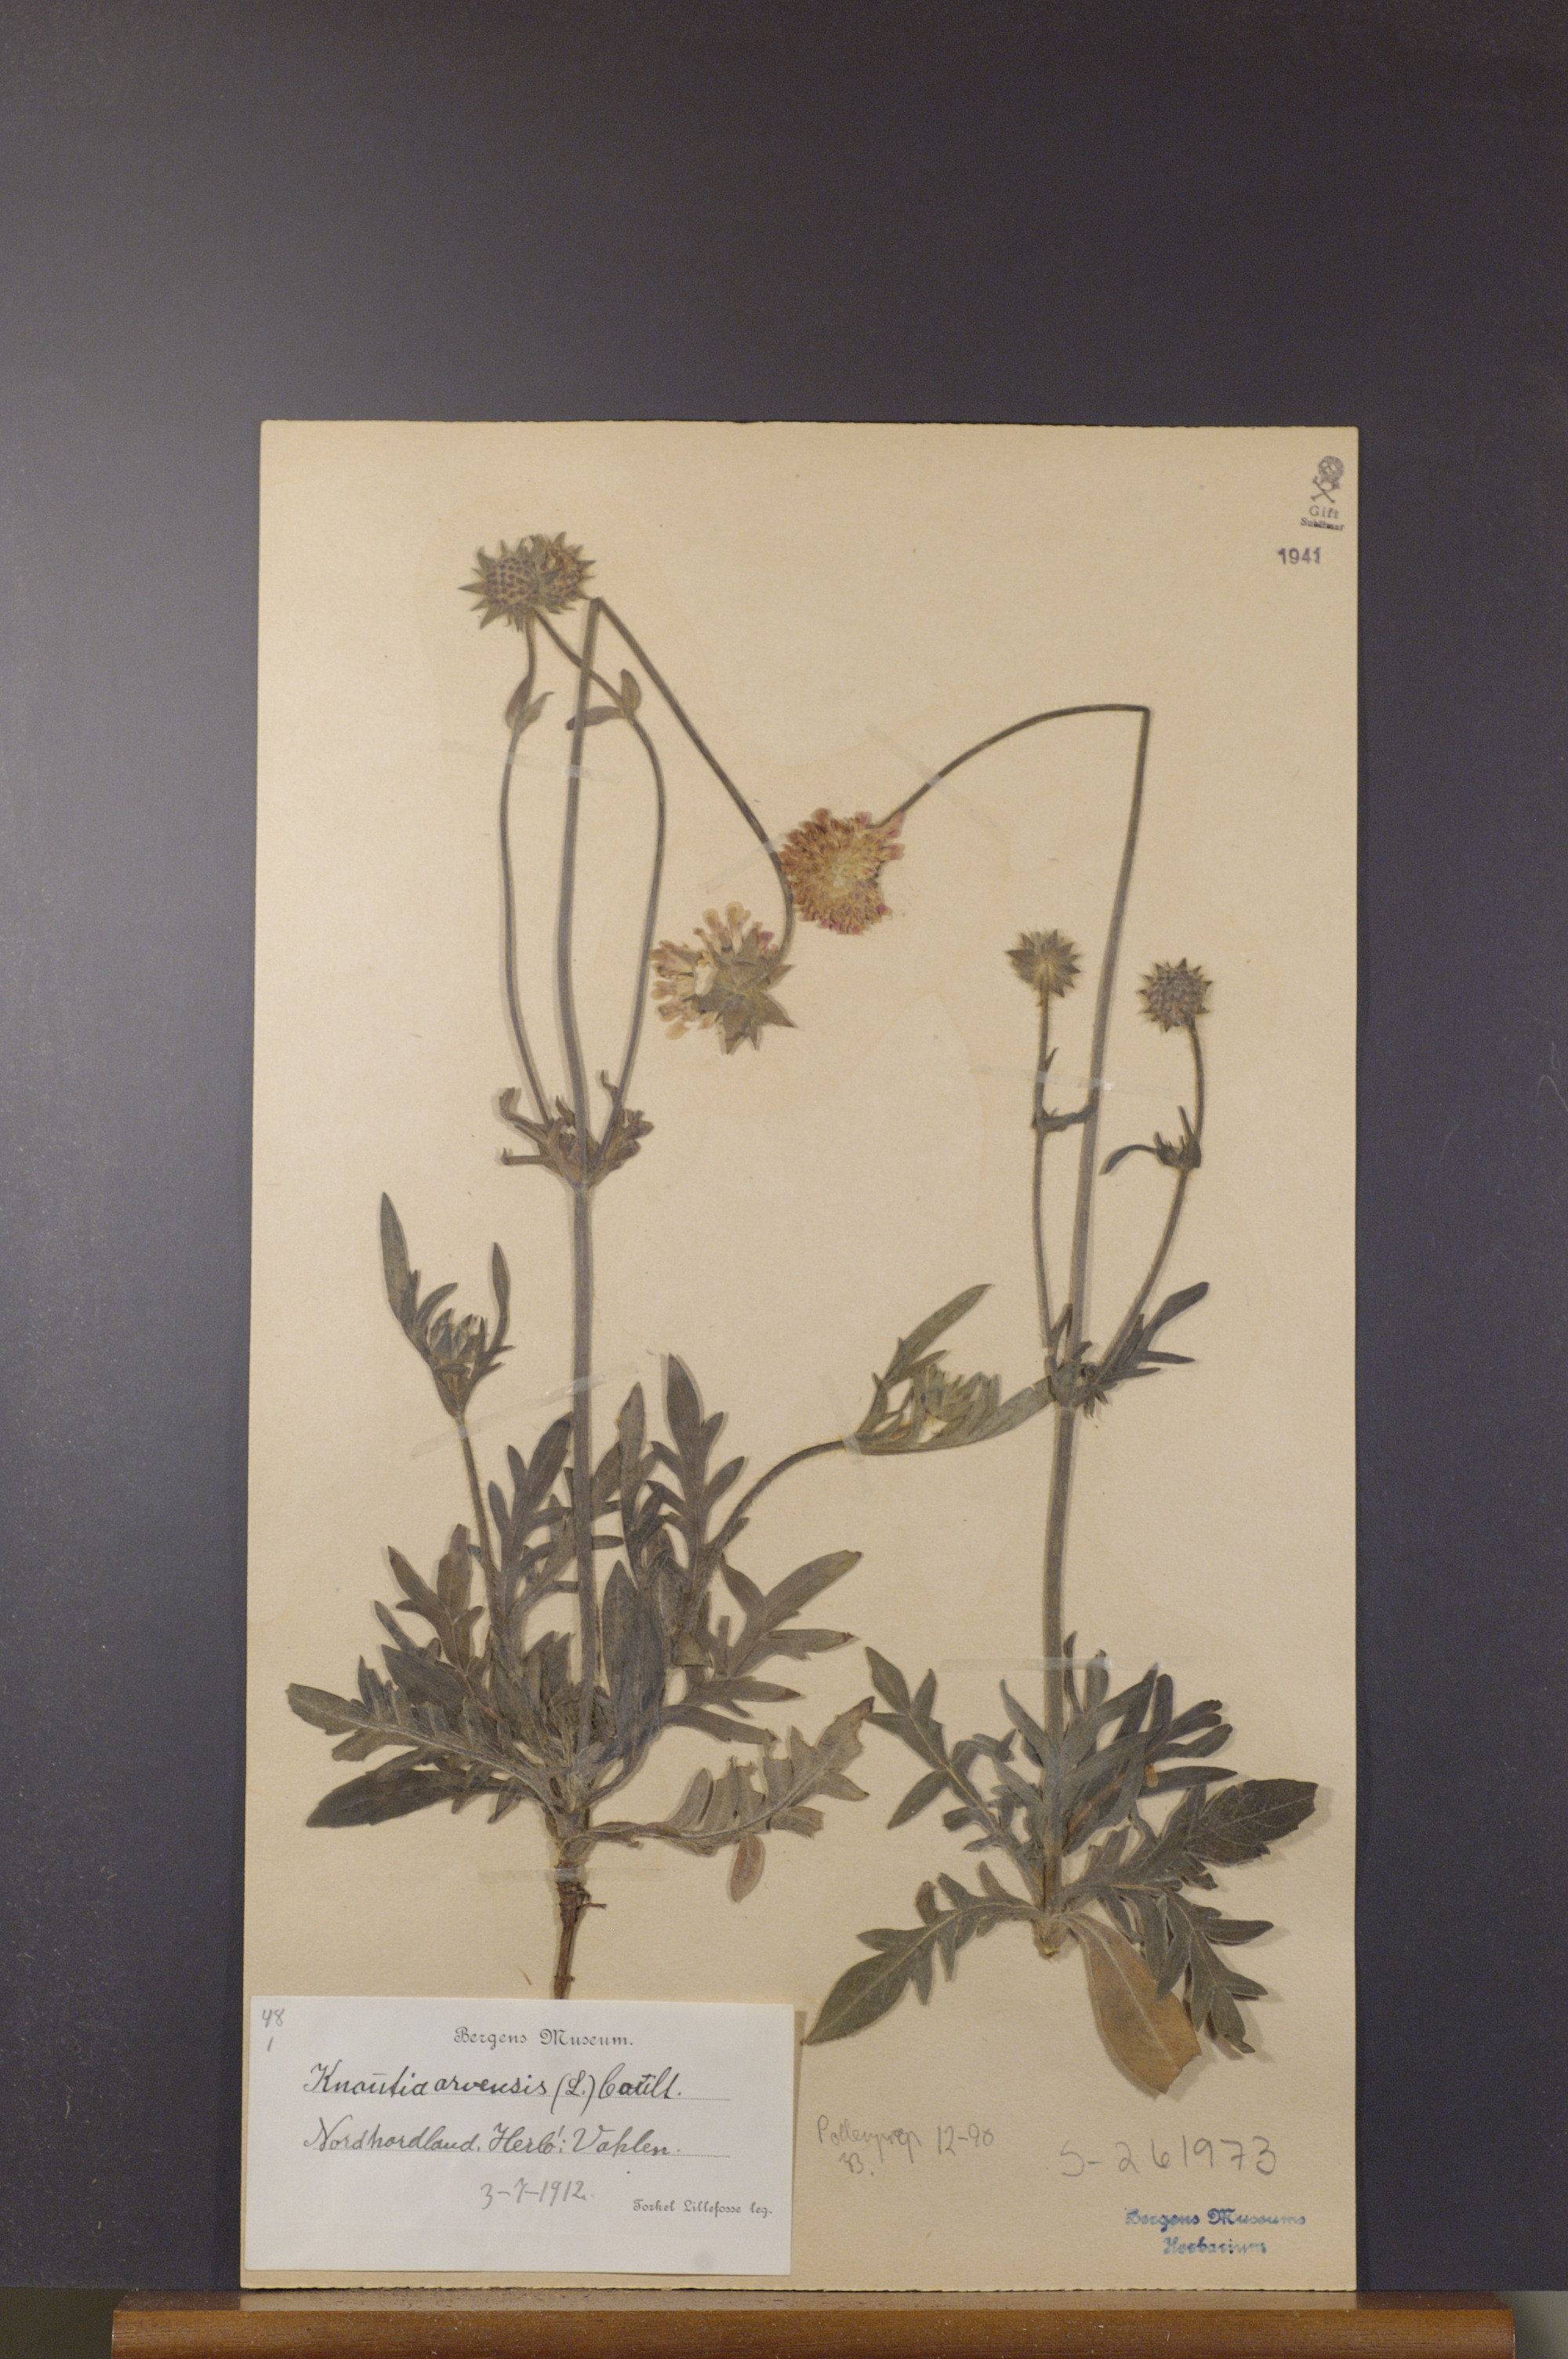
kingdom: Plantae
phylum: Tracheophyta
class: Magnoliopsida
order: Dipsacales
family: Caprifoliaceae
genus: Knautia
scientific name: Knautia arvensis
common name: Field scabiosa
